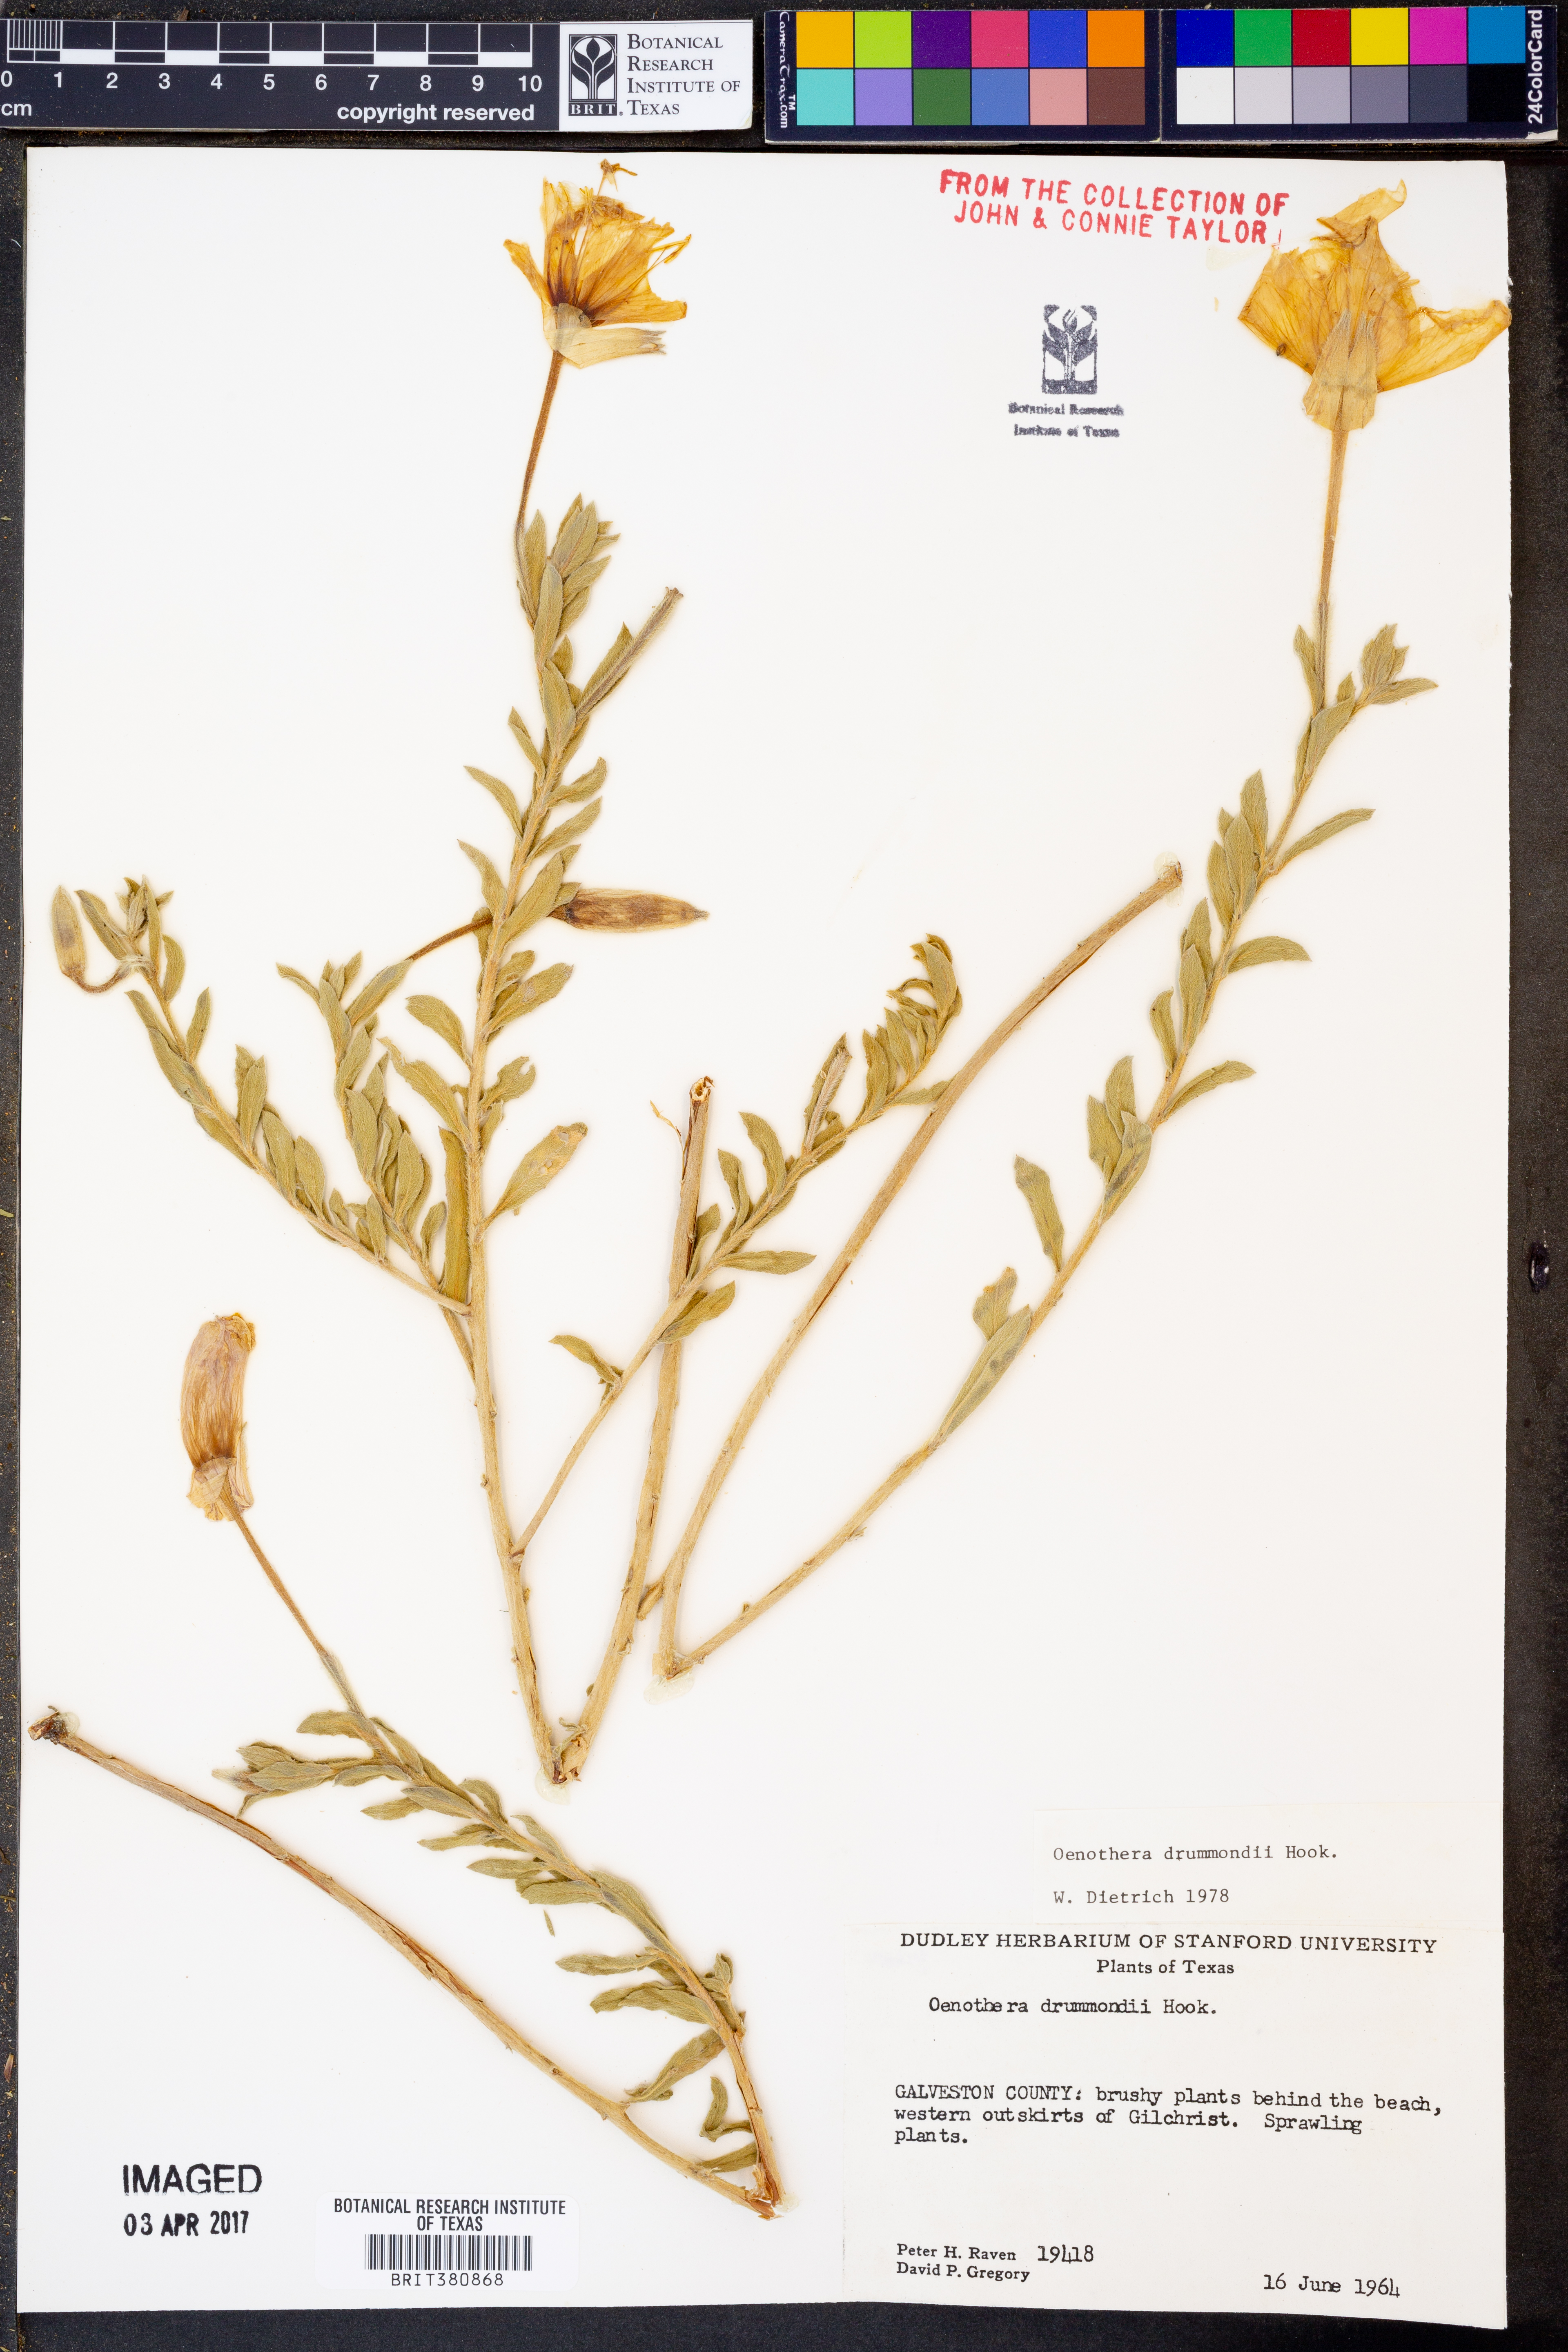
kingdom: Plantae
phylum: Tracheophyta
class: Magnoliopsida
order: Myrtales
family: Onagraceae
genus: Oenothera
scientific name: Oenothera drummondii
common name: Beach evening-primrose
